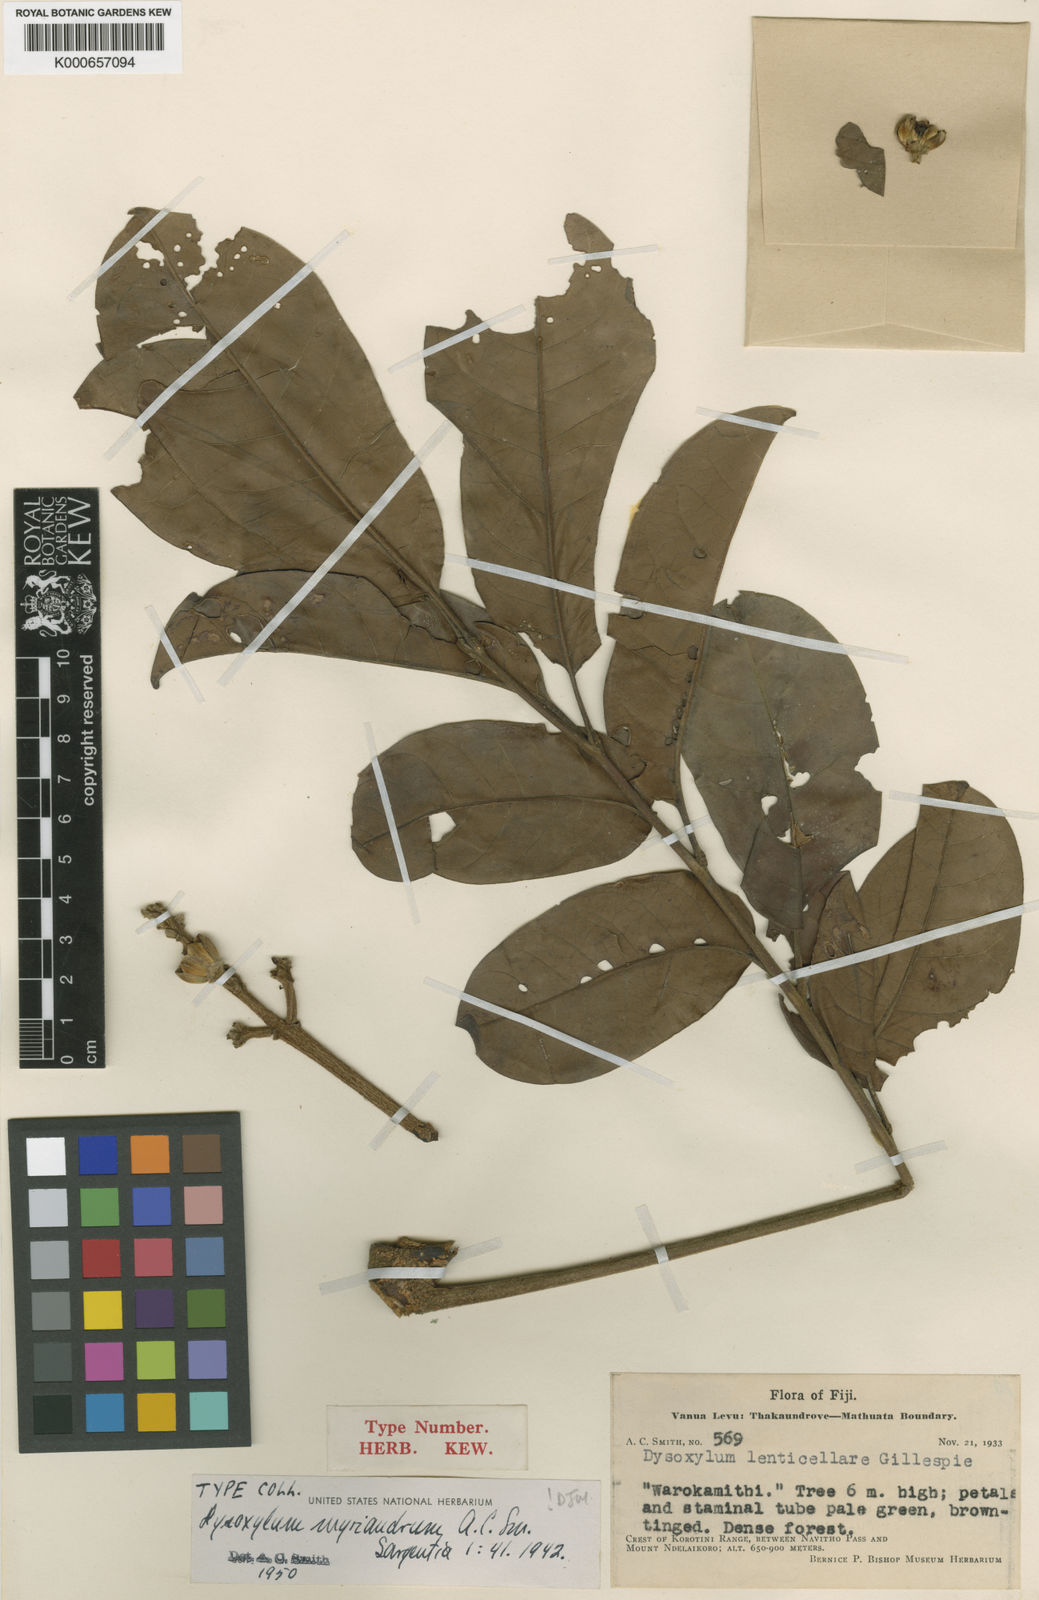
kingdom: Plantae
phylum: Tracheophyta
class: Magnoliopsida
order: Sapindales
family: Meliaceae
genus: Didymocheton
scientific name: Didymocheton myriandrus
